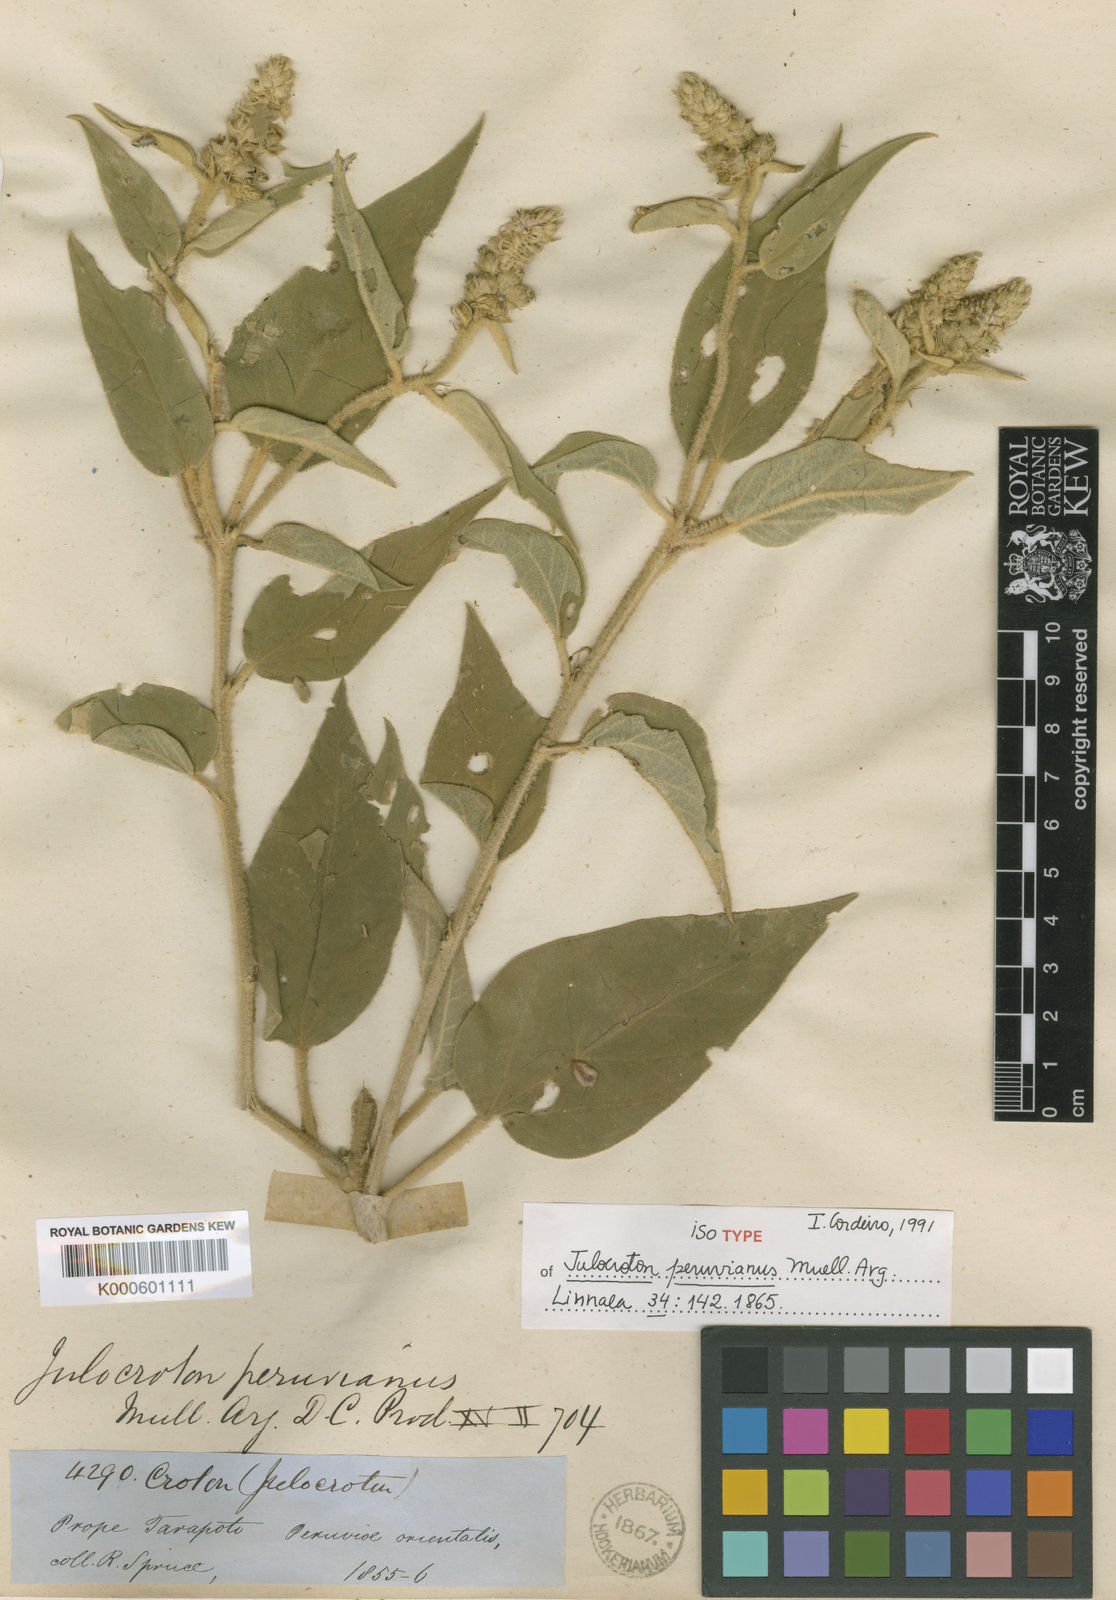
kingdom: Plantae
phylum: Tracheophyta
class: Magnoliopsida
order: Malpighiales
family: Euphorbiaceae
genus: Croton
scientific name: Croton
